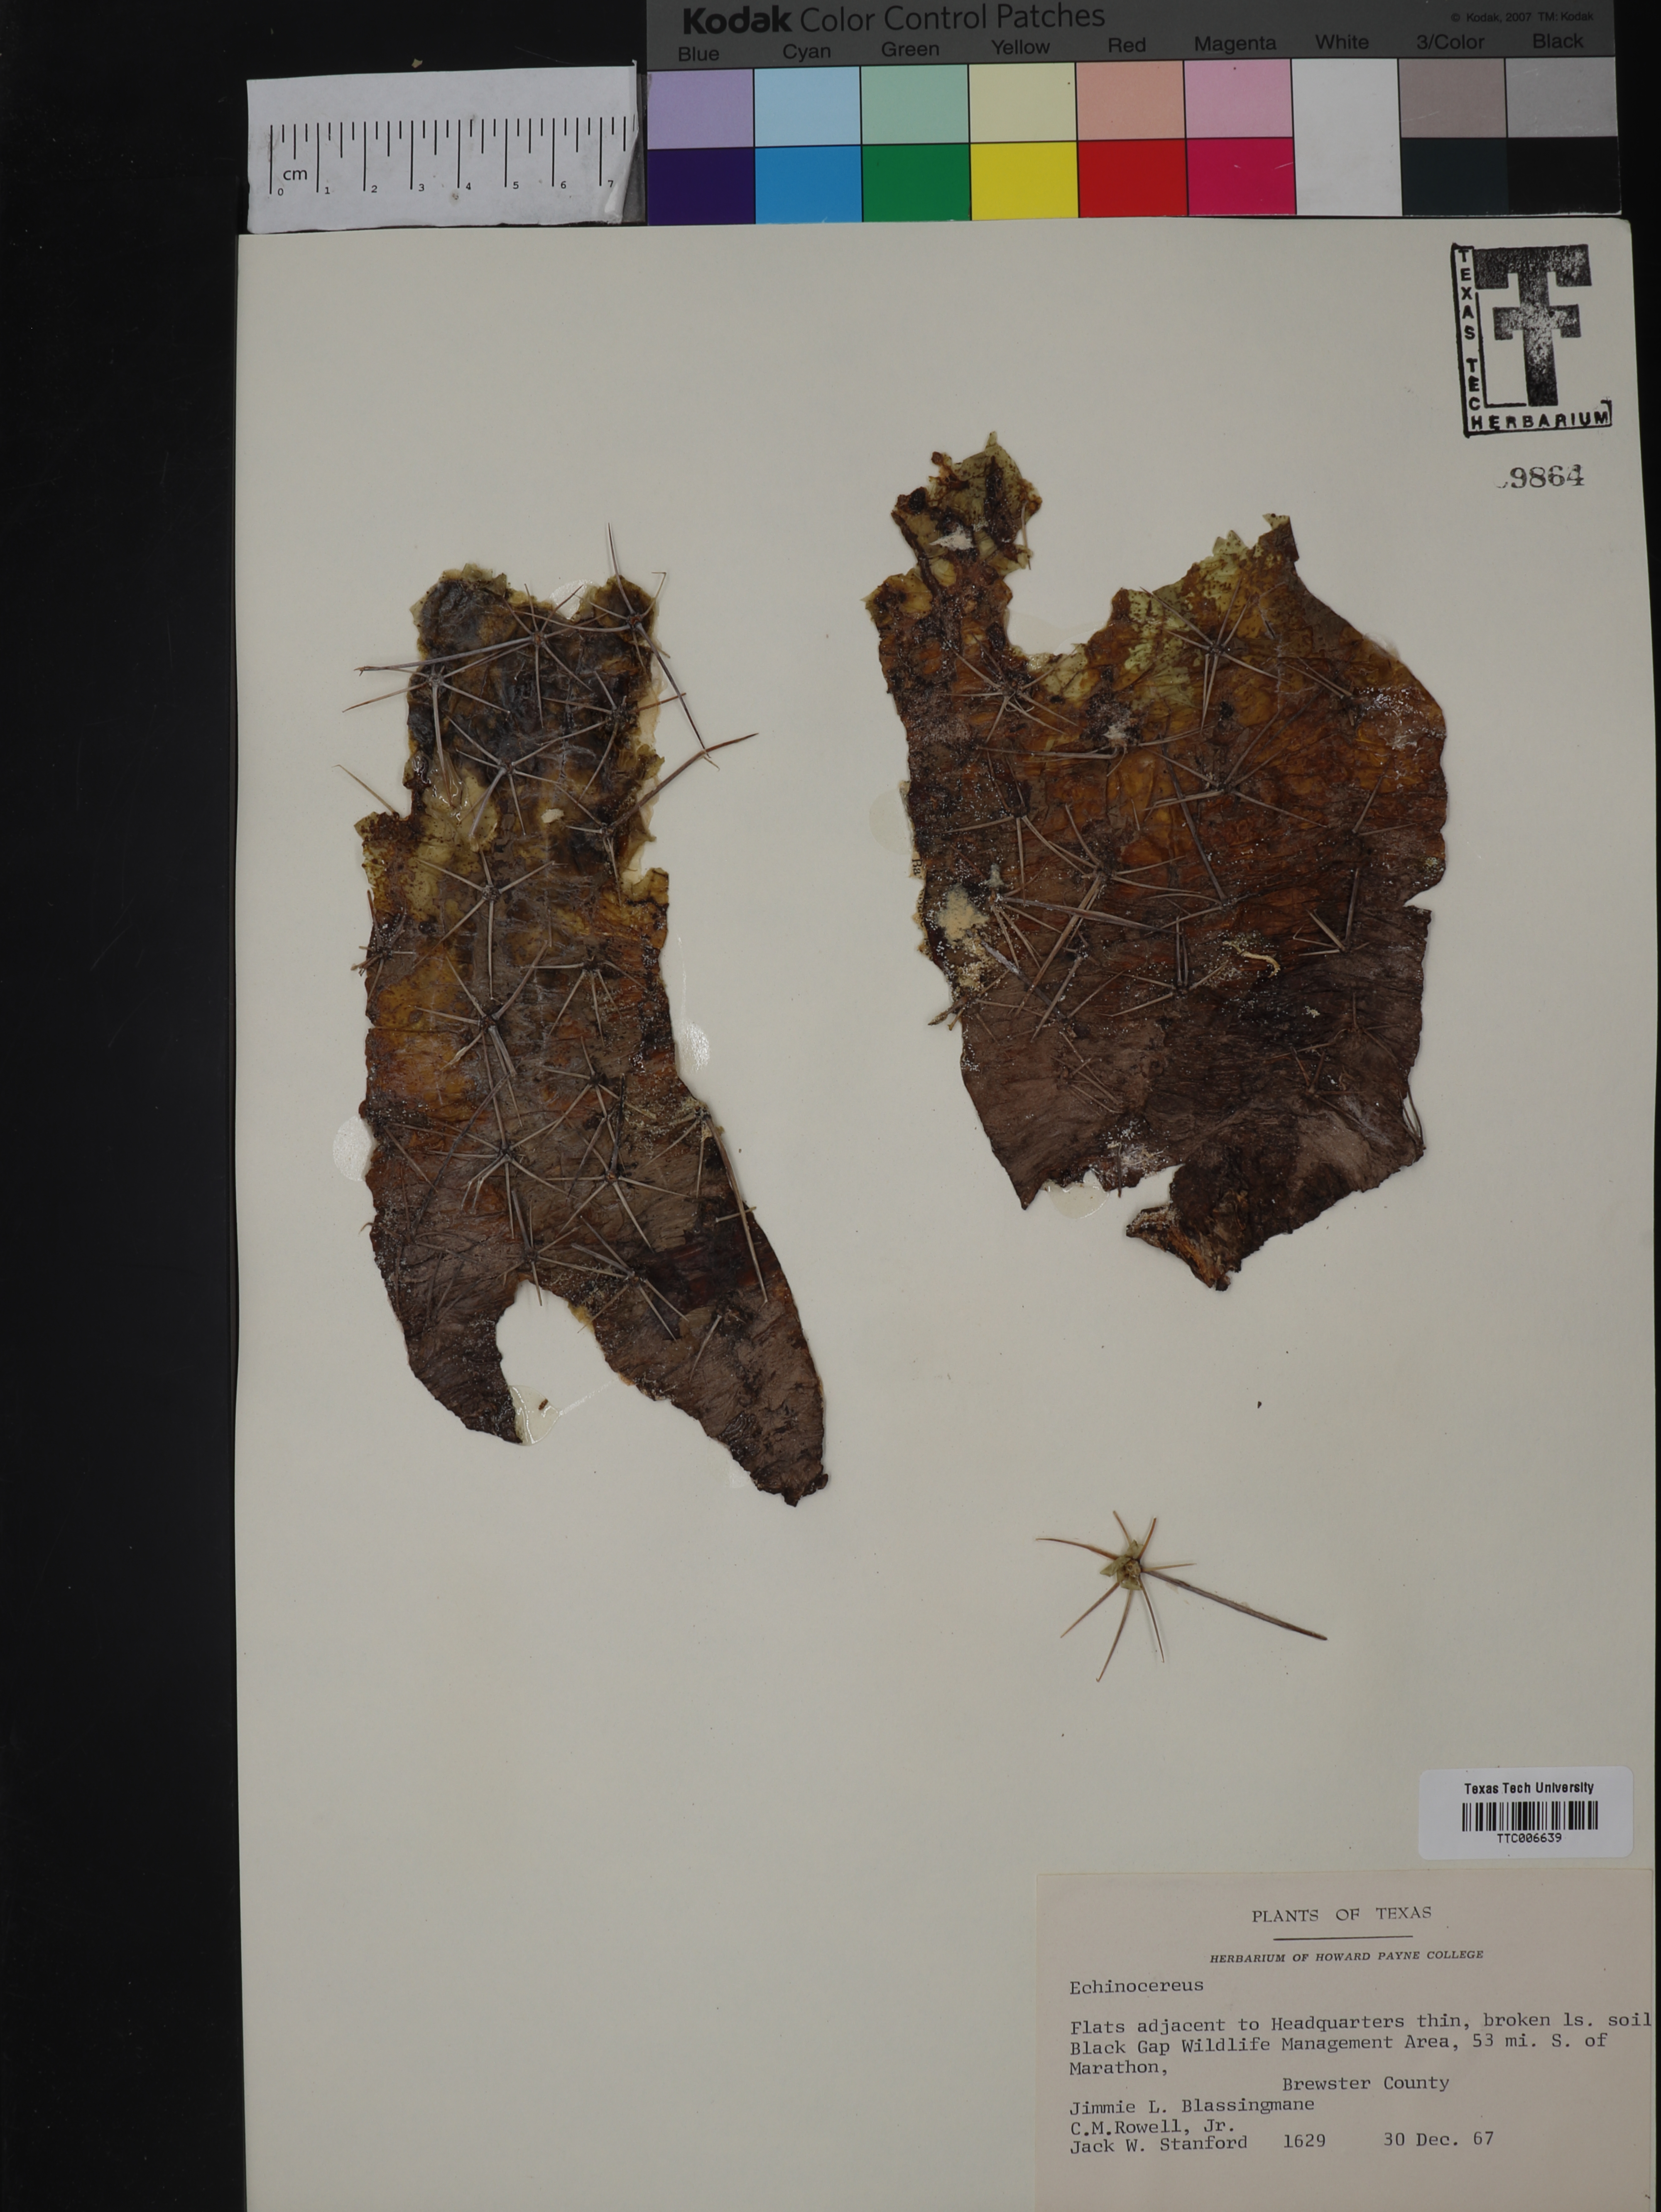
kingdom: Plantae
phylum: Tracheophyta
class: Magnoliopsida
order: Caryophyllales
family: Cactaceae
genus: Echinocereus
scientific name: Echinocereus
